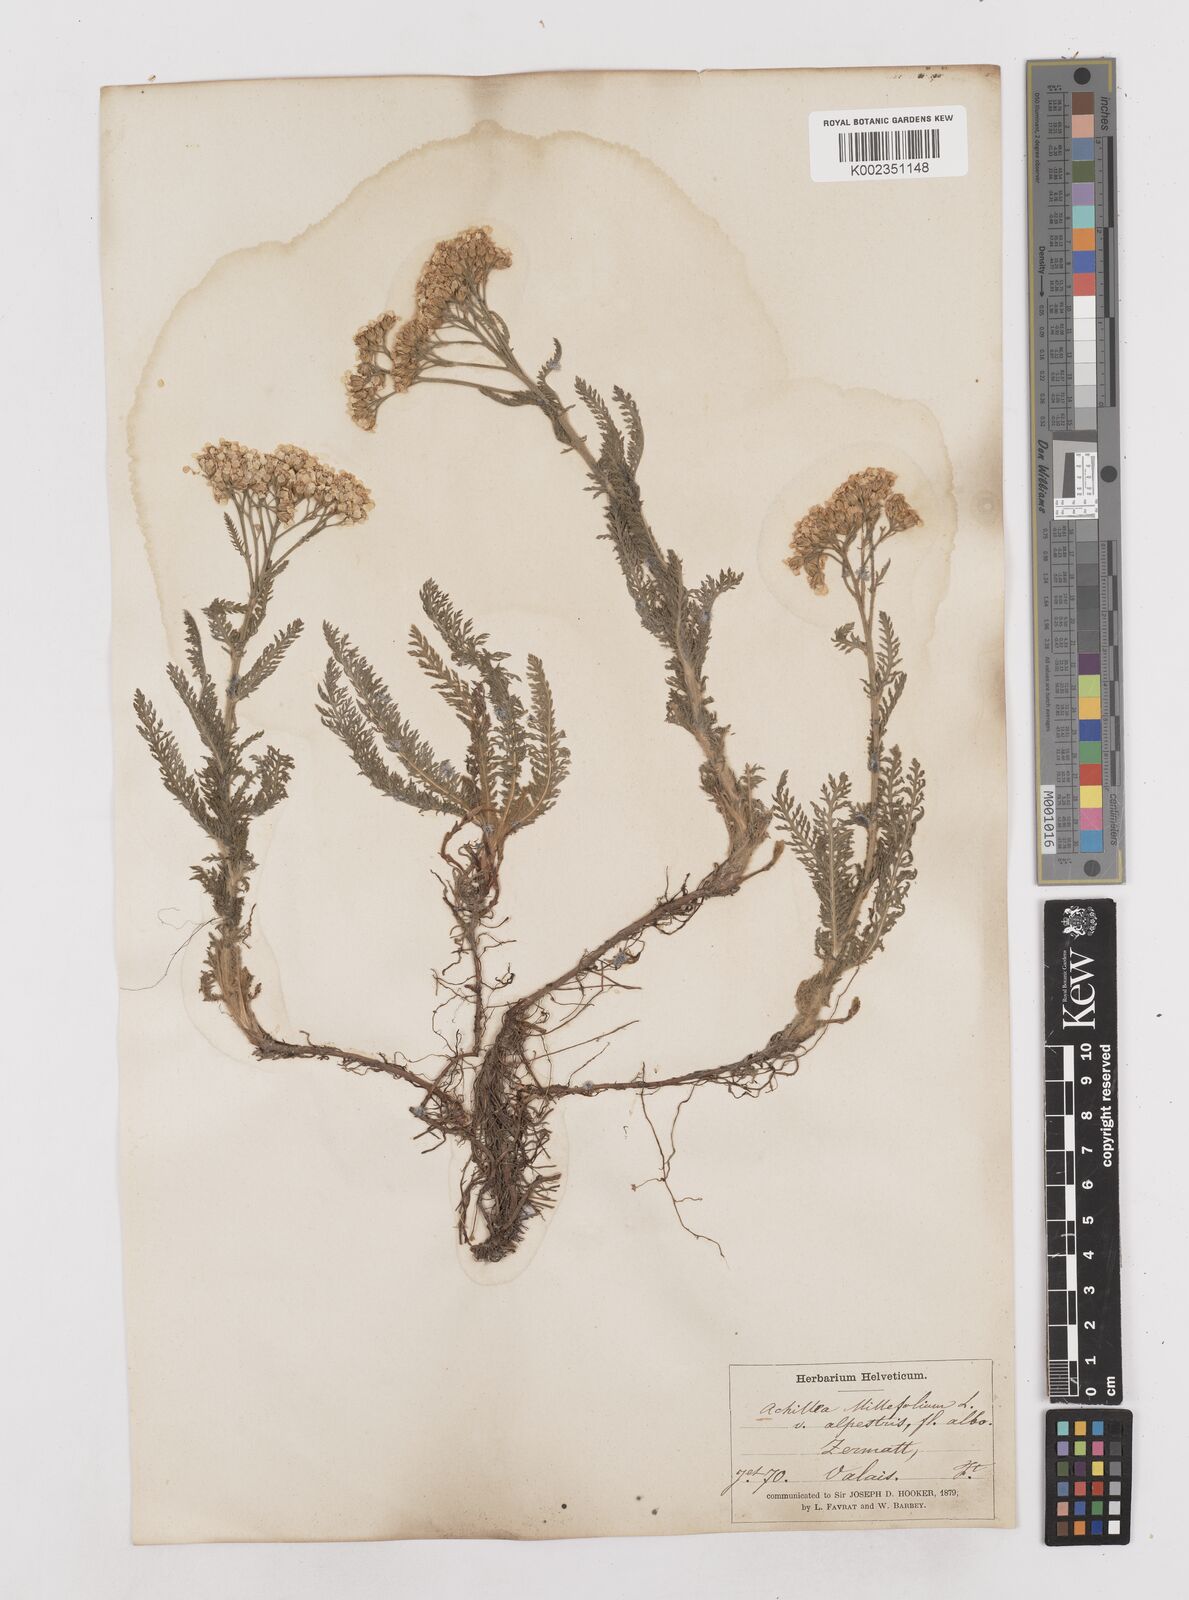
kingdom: Plantae
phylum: Tracheophyta
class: Magnoliopsida
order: Asterales
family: Asteraceae
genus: Achillea
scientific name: Achillea millefolium
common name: Yarrow
